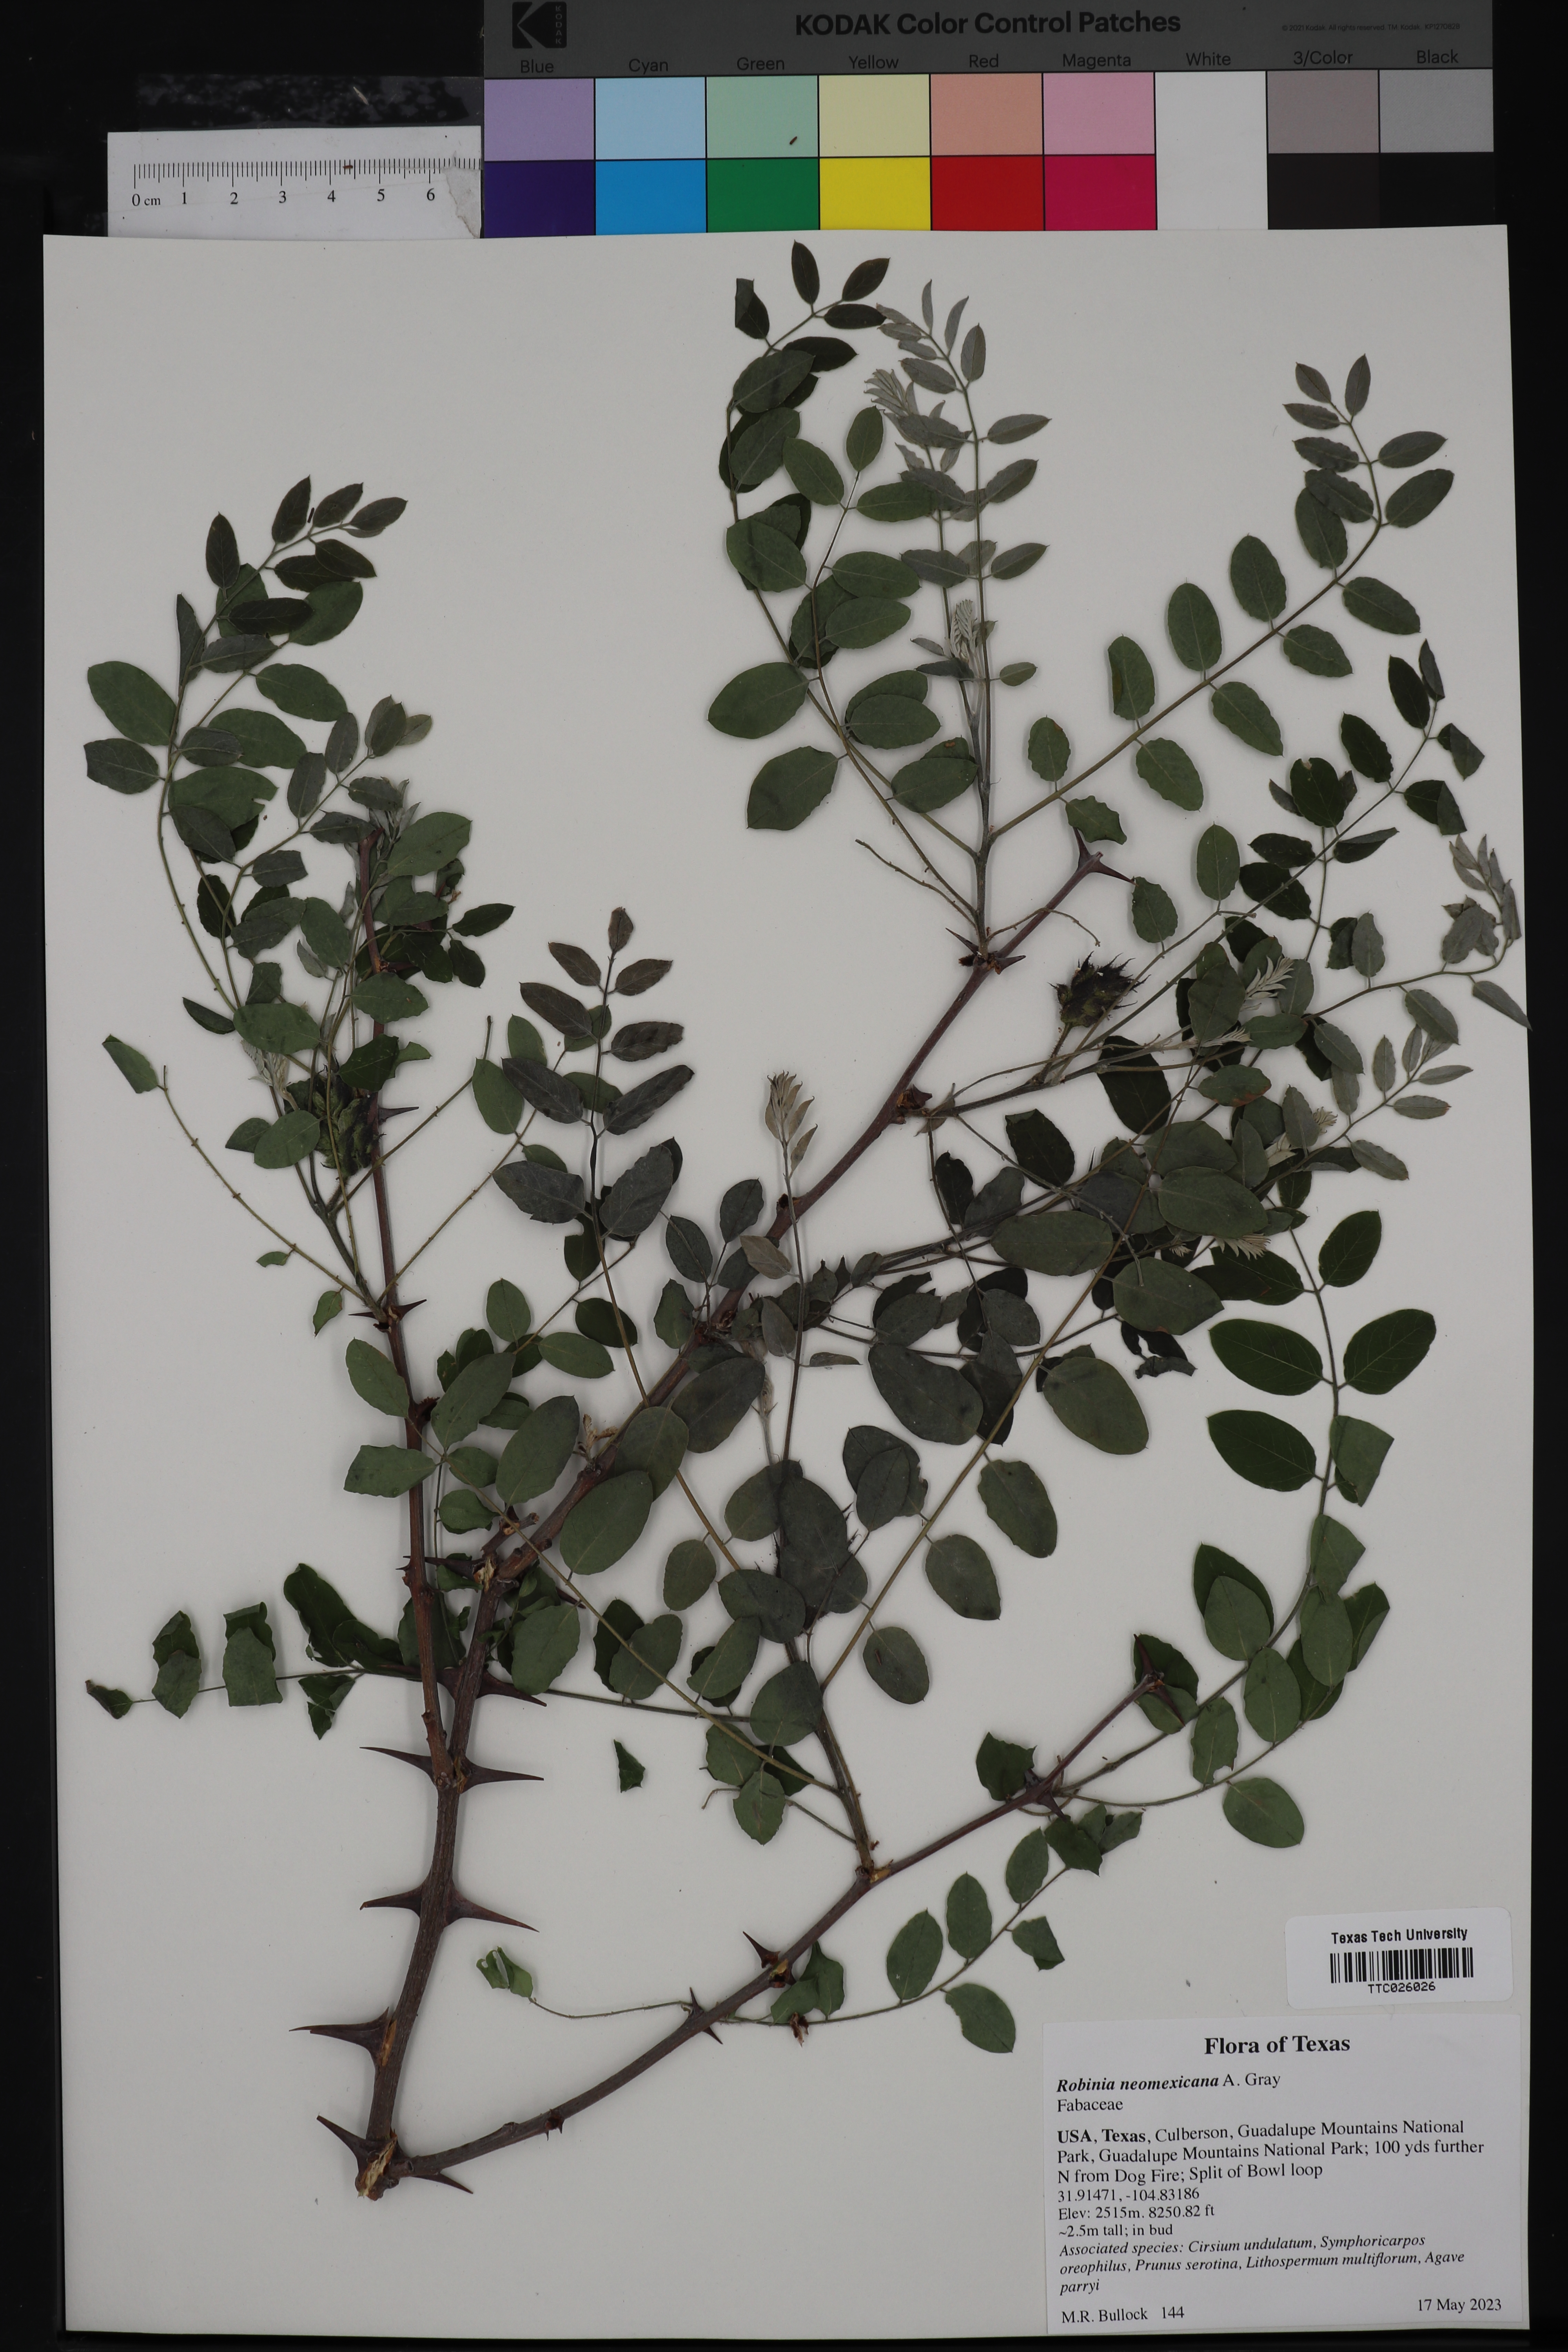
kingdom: Plantae
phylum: Tracheophyta
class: Magnoliopsida
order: Fabales
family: Fabaceae
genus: Robinia
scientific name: Robinia neomexicana
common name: New mexico locust
